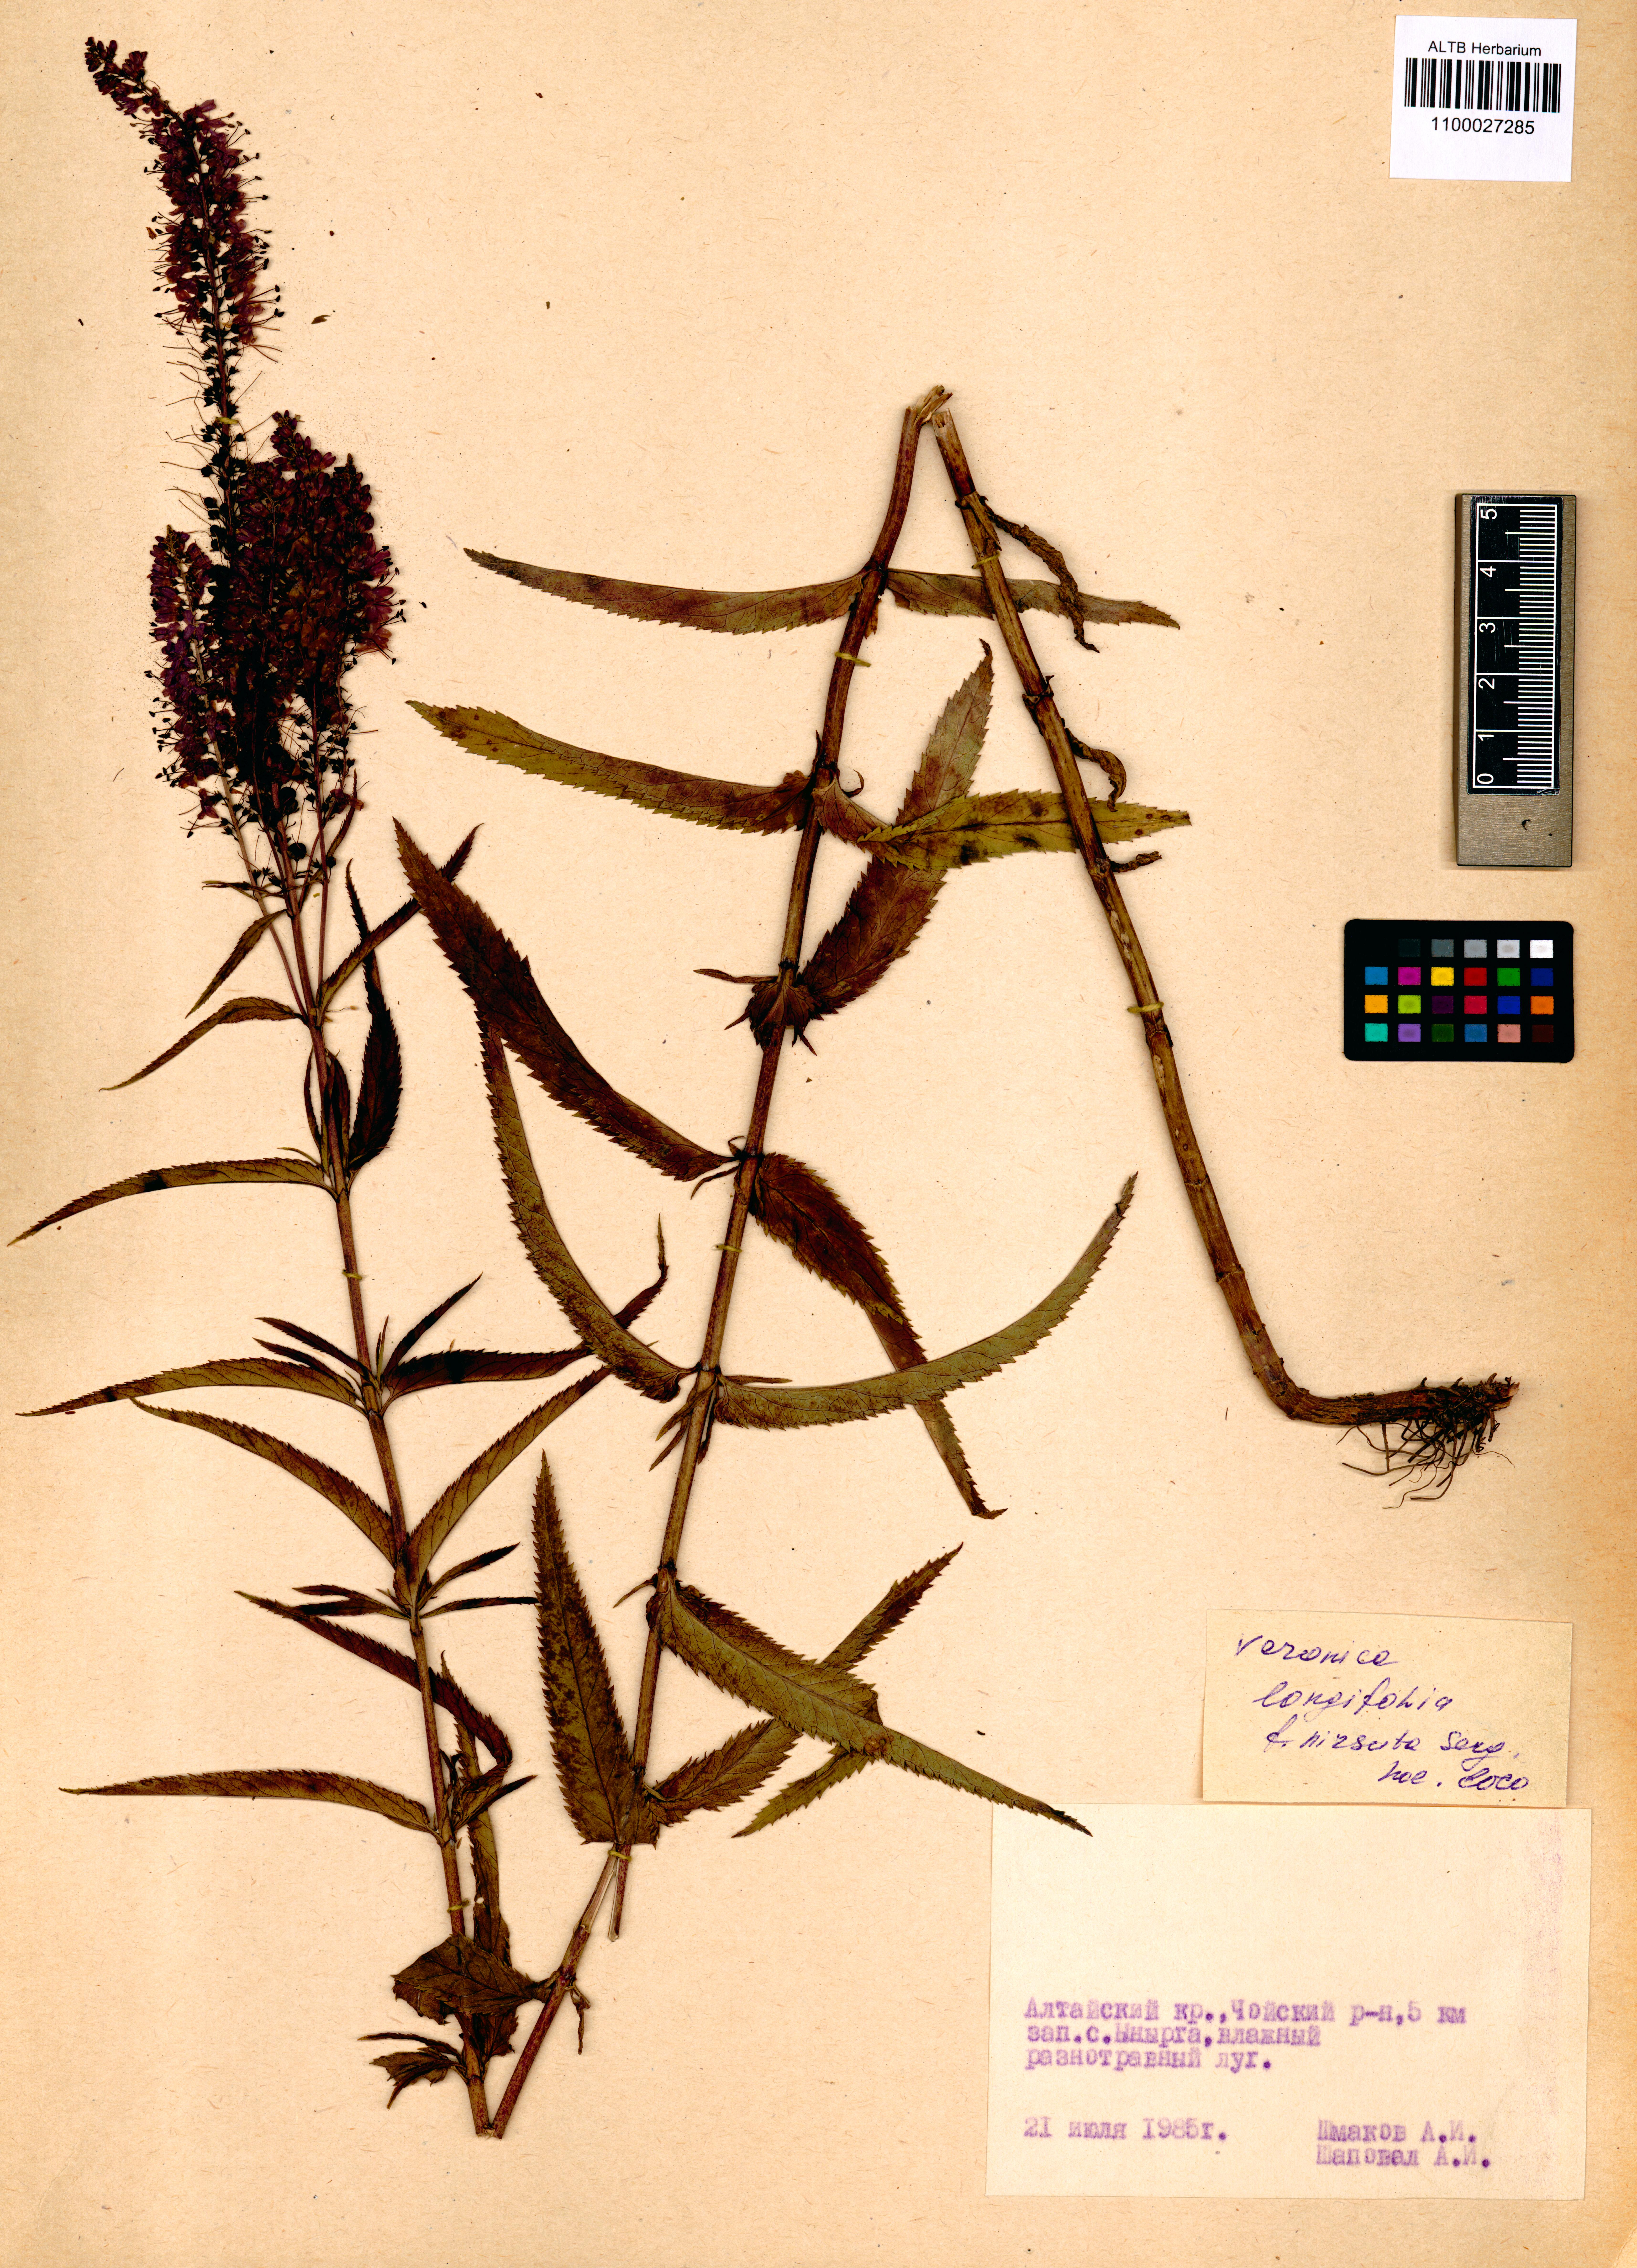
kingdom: Plantae
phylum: Tracheophyta
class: Magnoliopsida
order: Lamiales
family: Plantaginaceae
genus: Veronica
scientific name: Veronica longifolia
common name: Garden speedwell
